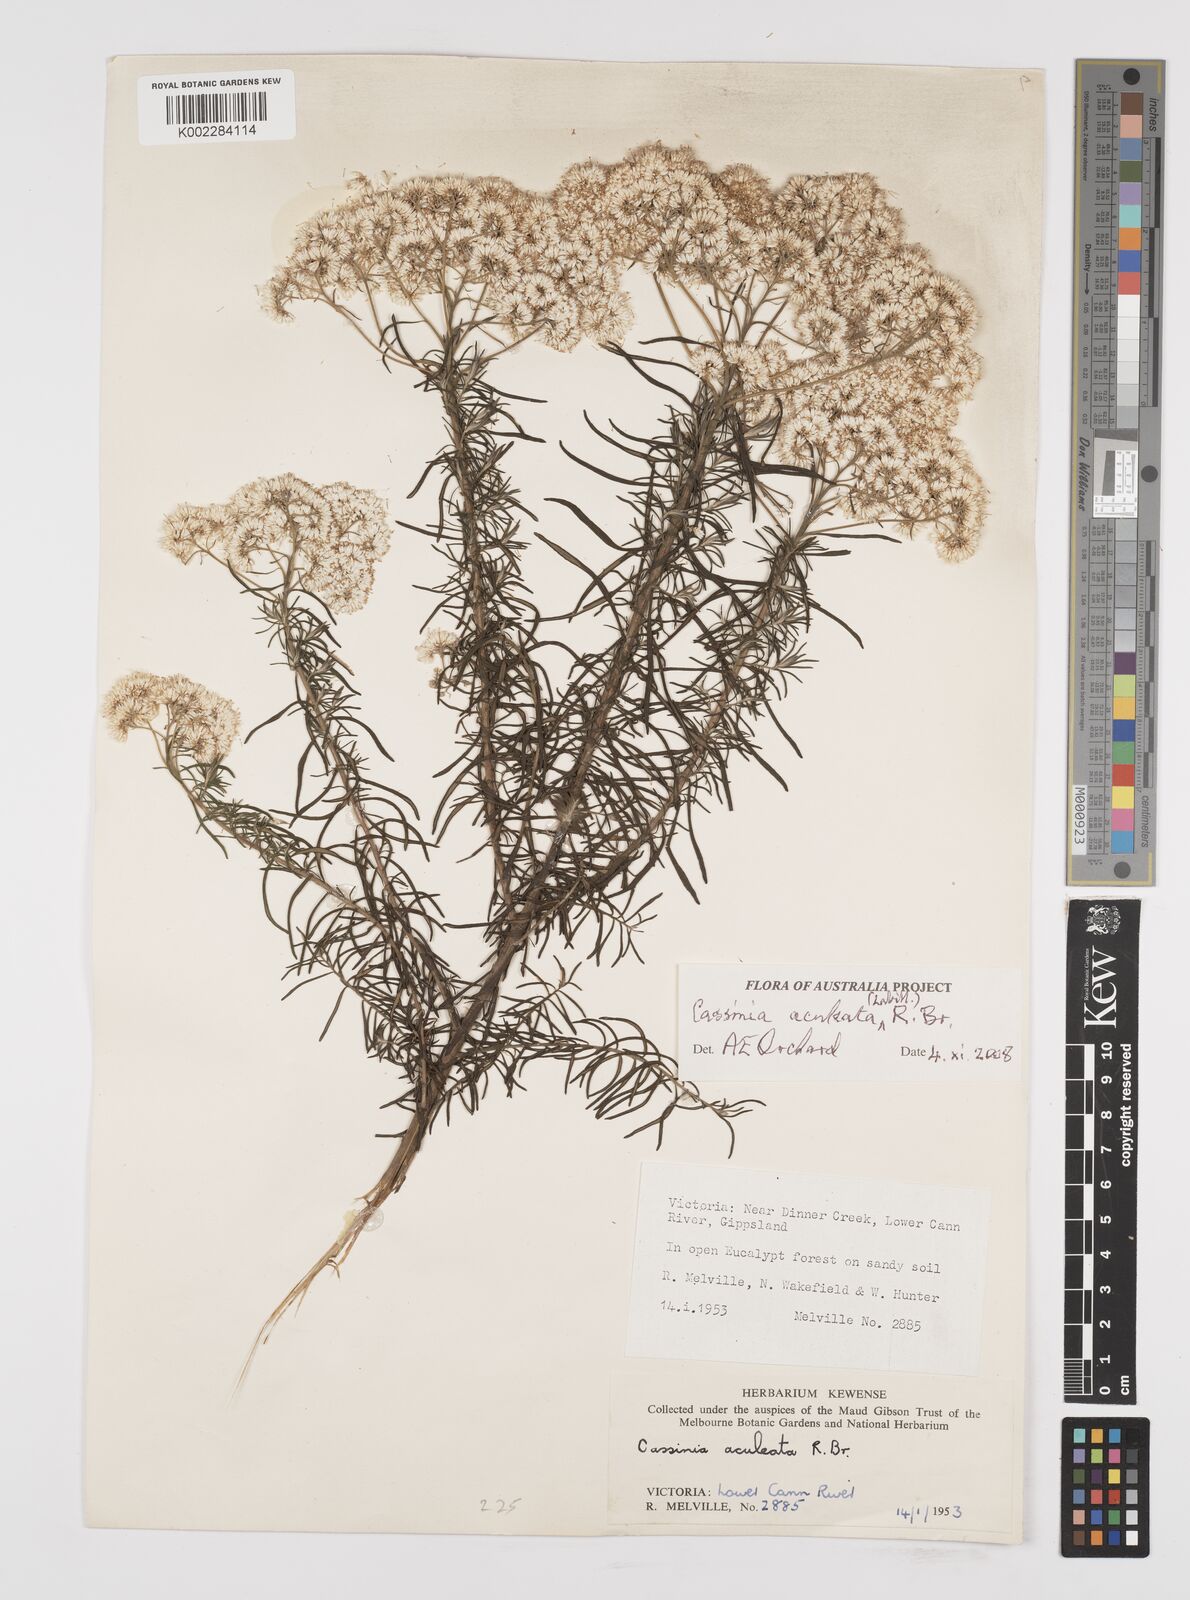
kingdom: Plantae
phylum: Tracheophyta
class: Magnoliopsida
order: Asterales
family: Asteraceae
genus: Cassinia
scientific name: Cassinia aculeata
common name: Australian tauhinu
